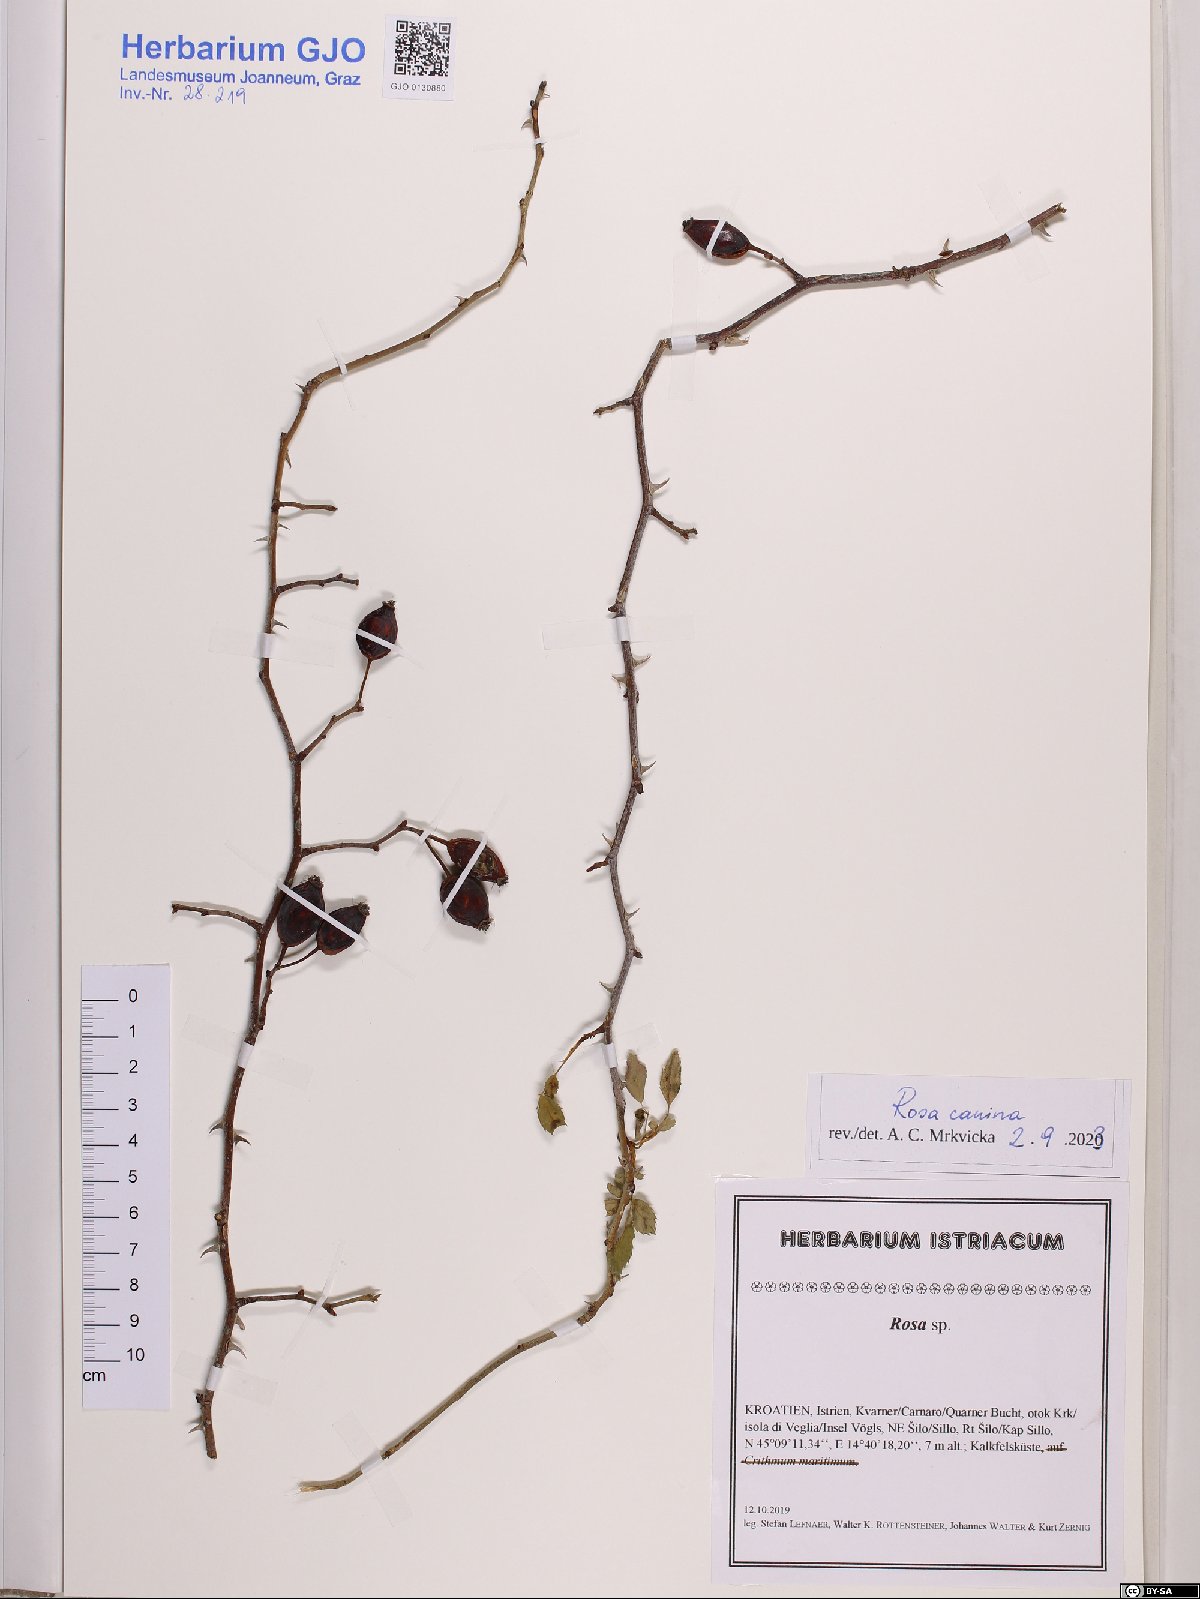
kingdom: Plantae
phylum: Tracheophyta
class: Magnoliopsida
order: Rosales
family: Rosaceae
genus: Rosa
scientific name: Rosa canina
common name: Dog rose
